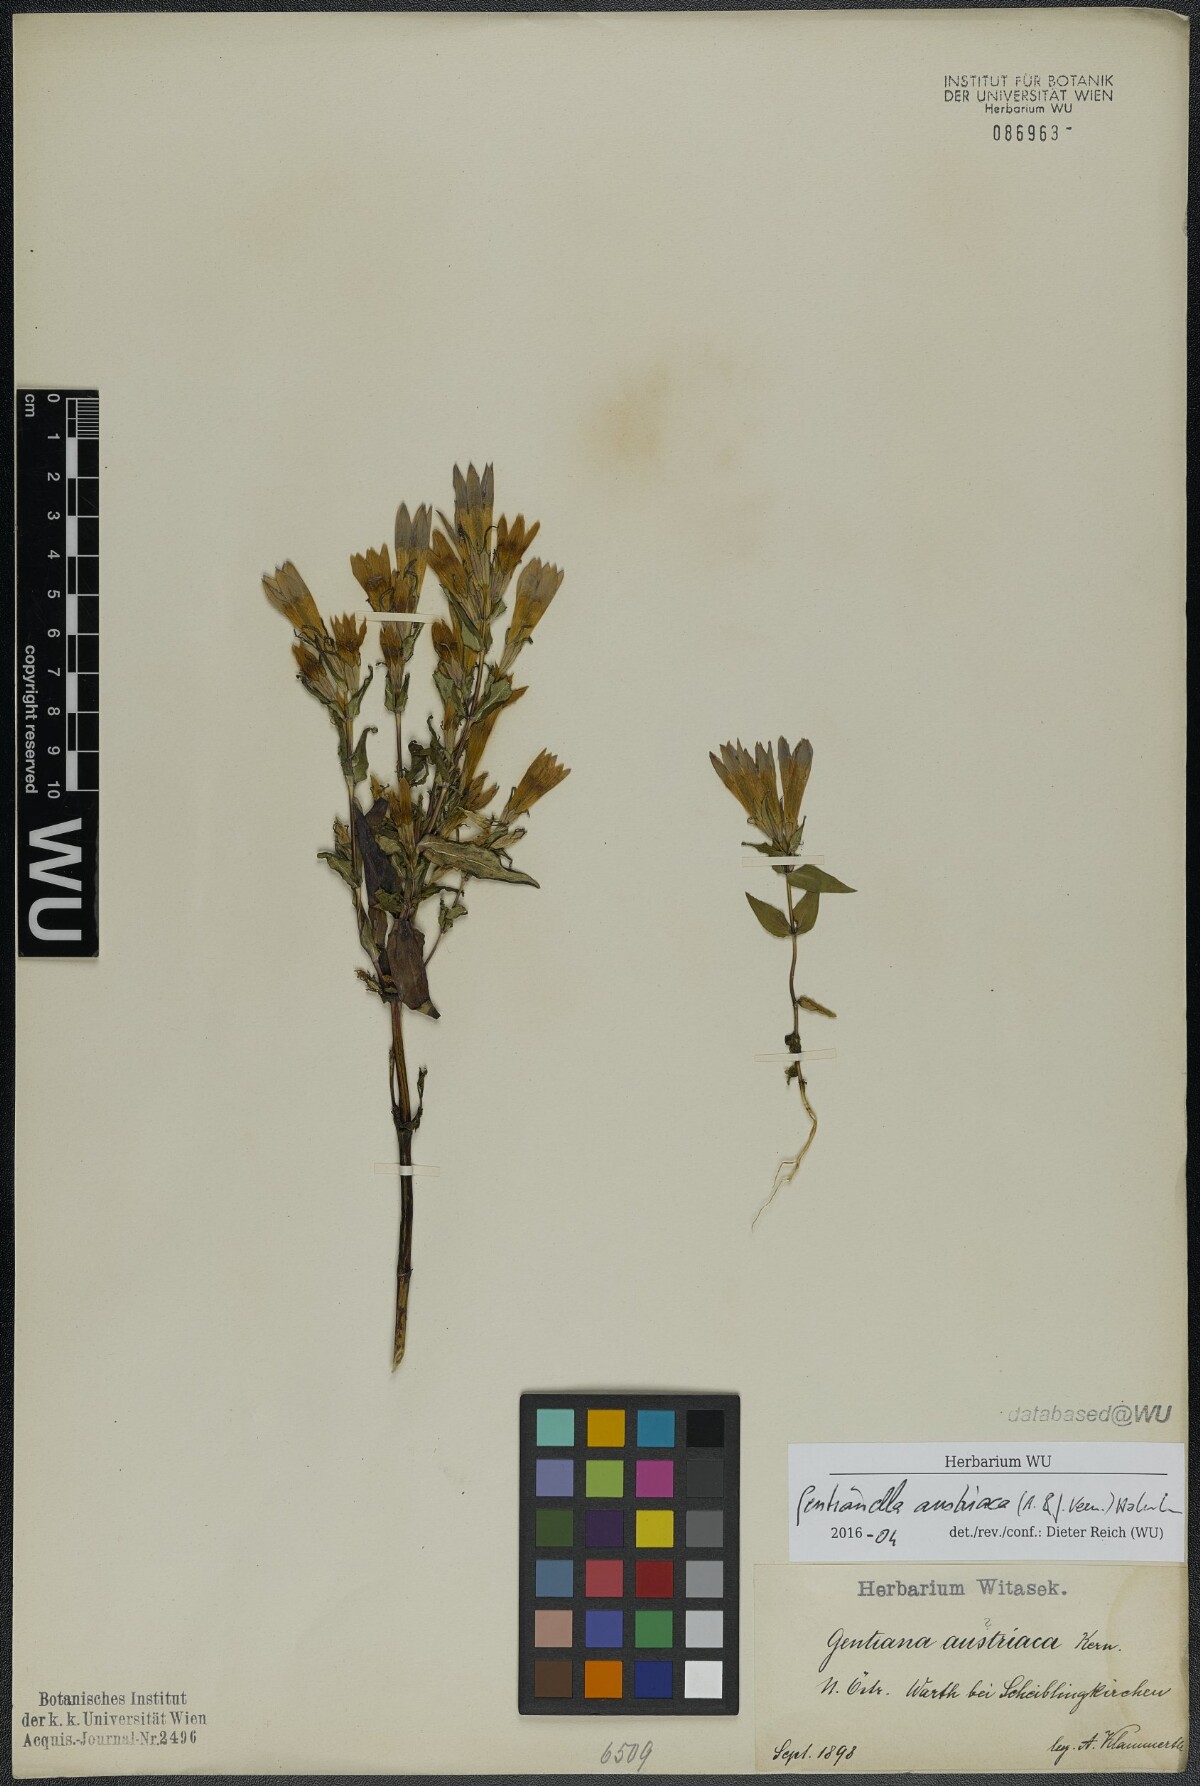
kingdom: Plantae
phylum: Tracheophyta
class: Magnoliopsida
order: Gentianales
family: Gentianaceae
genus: Gentianella
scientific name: Gentianella austriaca
